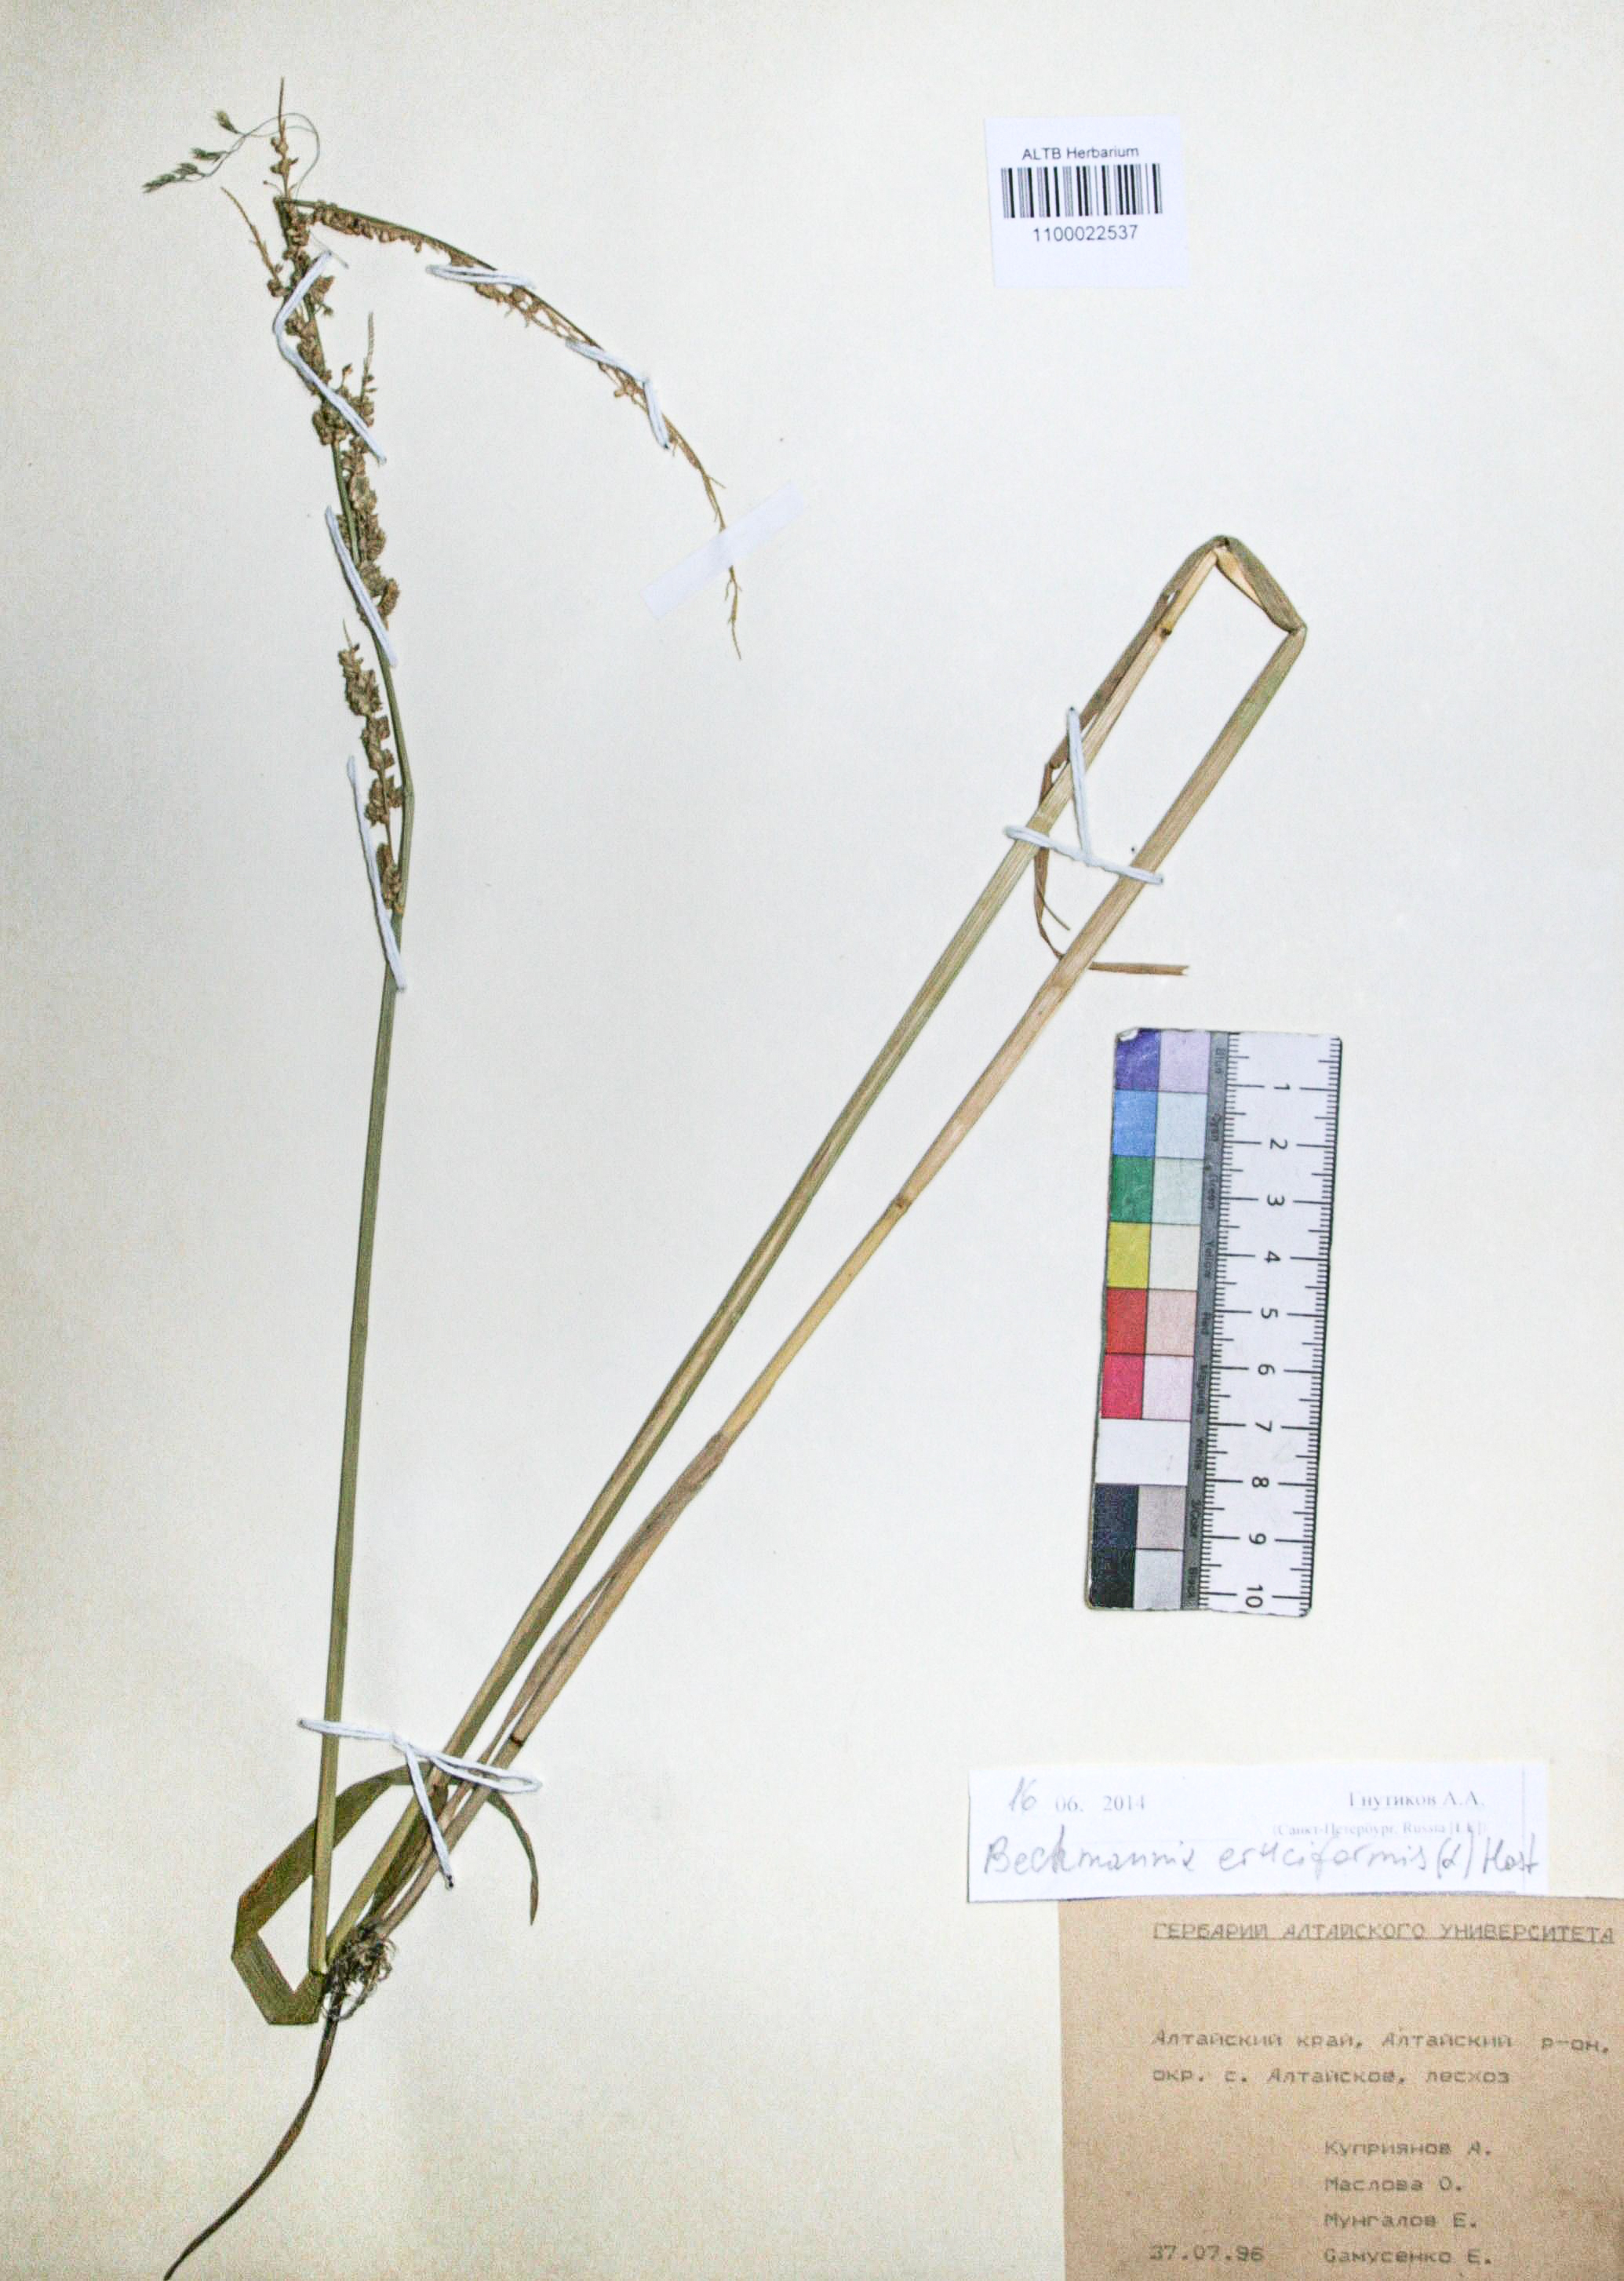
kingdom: Plantae
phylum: Tracheophyta
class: Liliopsida
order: Poales
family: Poaceae
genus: Beckmannia
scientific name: Beckmannia eruciformis
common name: European slough-grass
